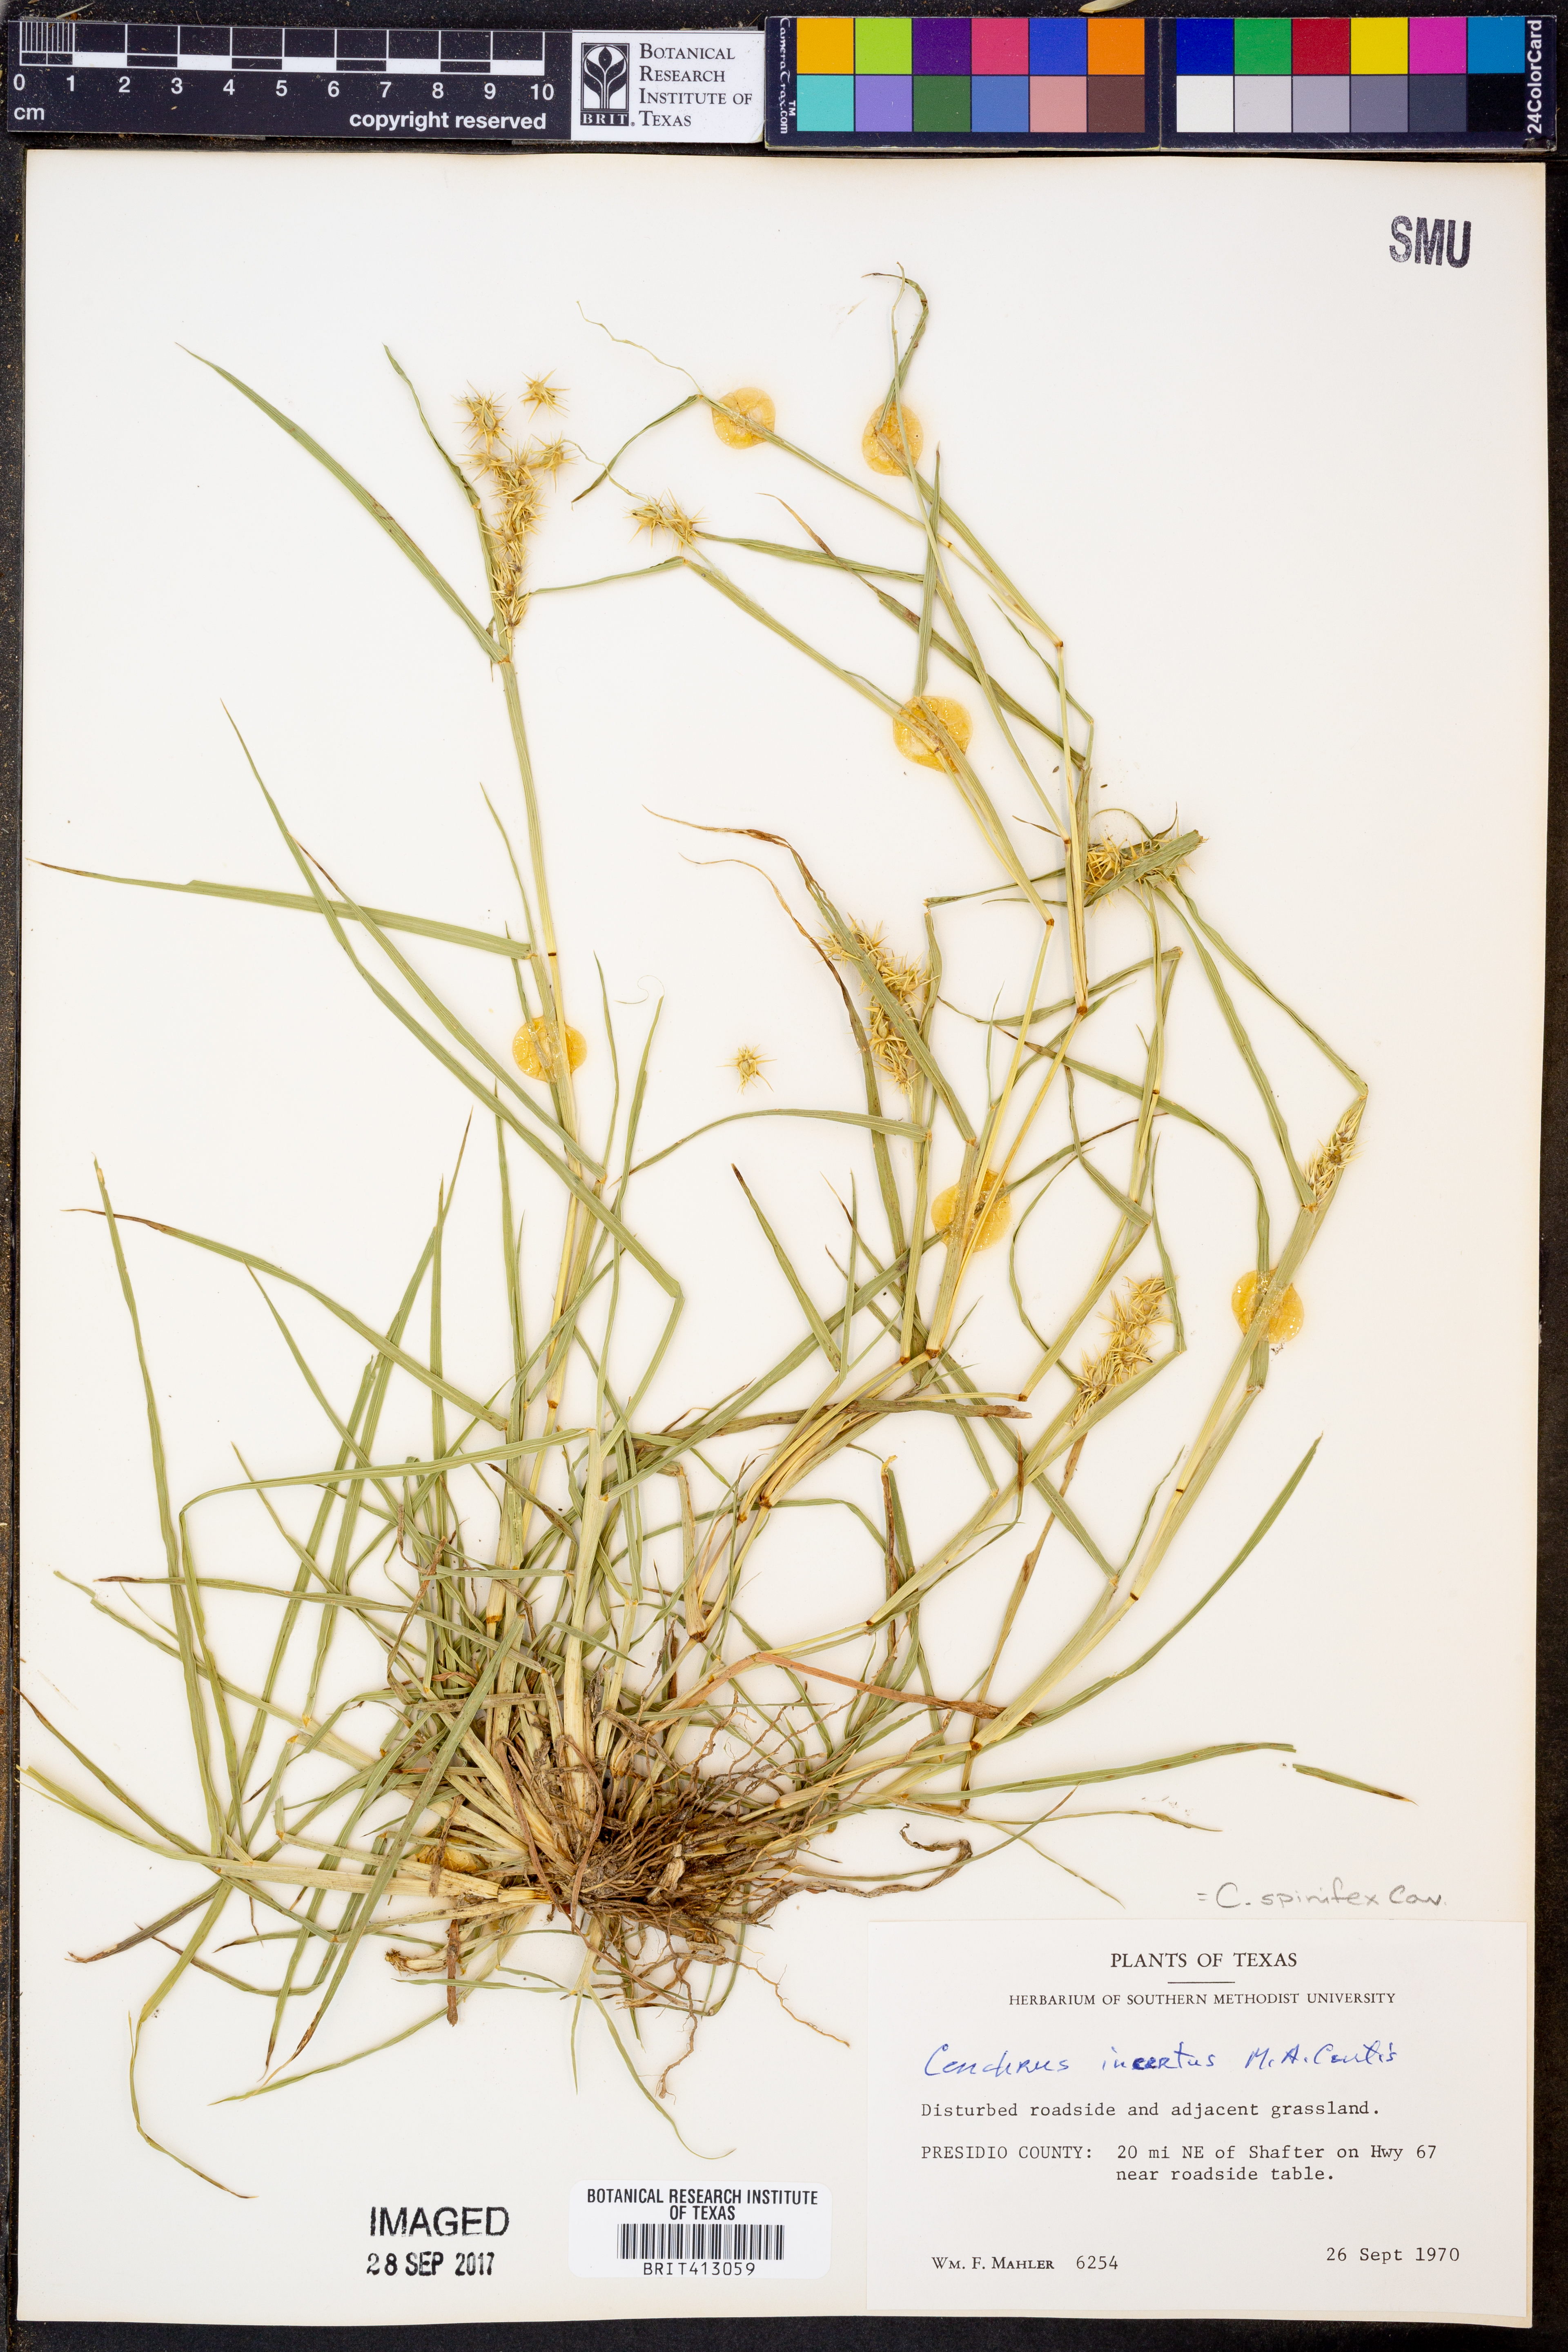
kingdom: Plantae
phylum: Tracheophyta
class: Liliopsida
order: Poales
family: Poaceae
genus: Cenchrus
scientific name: Cenchrus spinifex
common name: Coast sandbur
